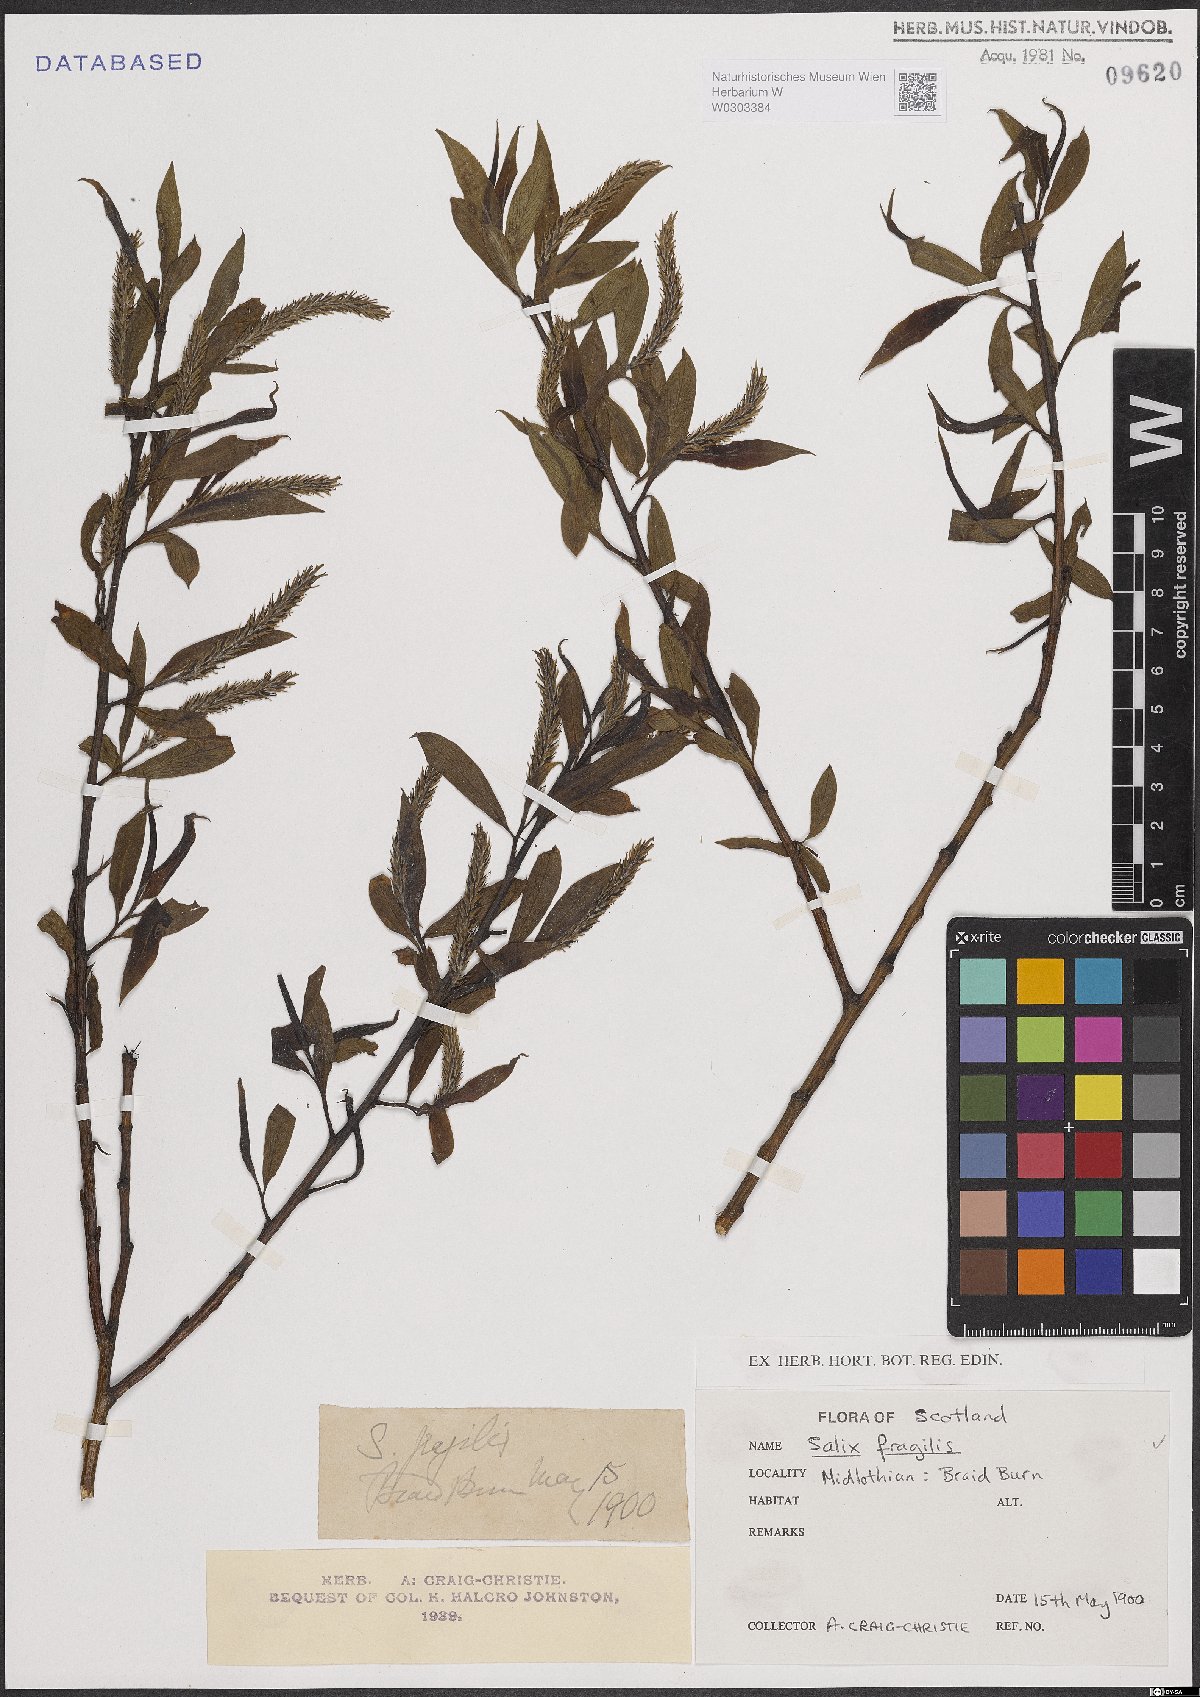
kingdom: Plantae
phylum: Tracheophyta
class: Magnoliopsida
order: Malpighiales
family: Salicaceae
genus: Salix
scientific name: Salix fragilis
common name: Crack willow
